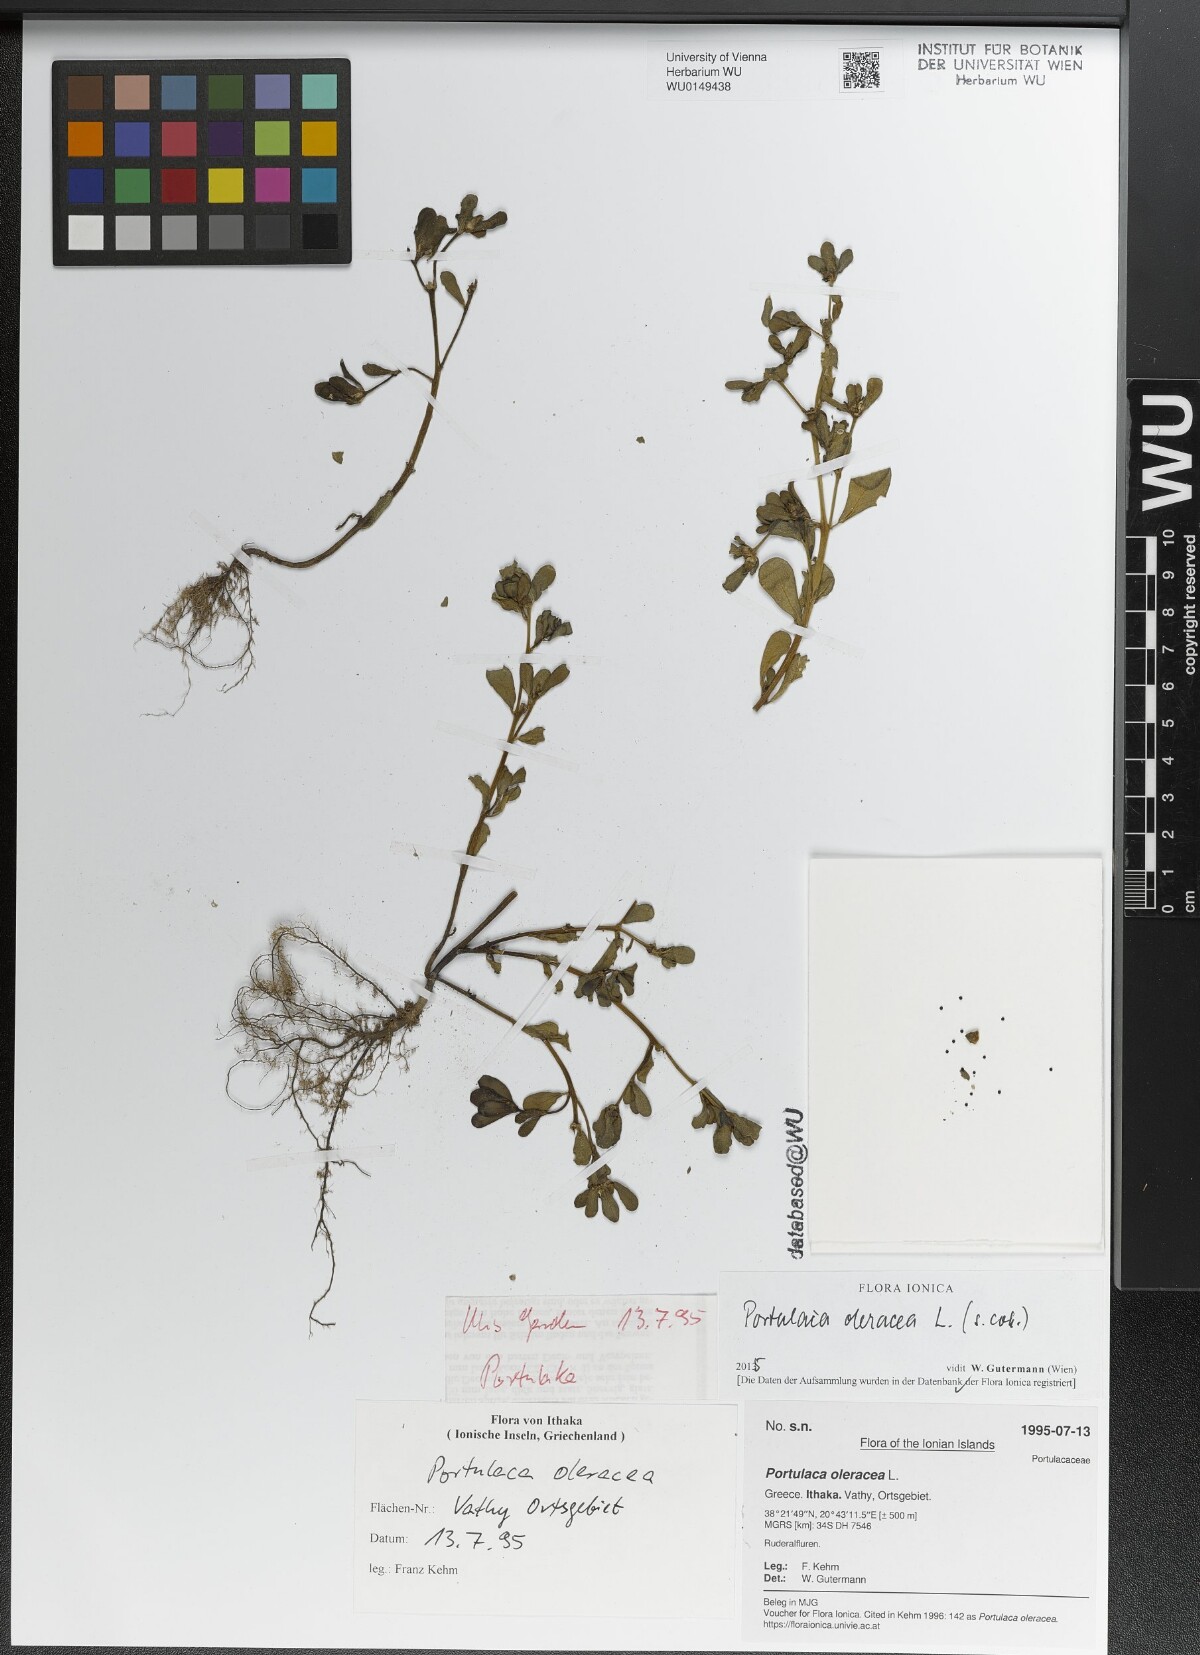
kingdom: Plantae
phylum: Tracheophyta
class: Magnoliopsida
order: Caryophyllales
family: Portulacaceae
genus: Portulaca
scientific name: Portulaca oleracea
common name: Common purslane
